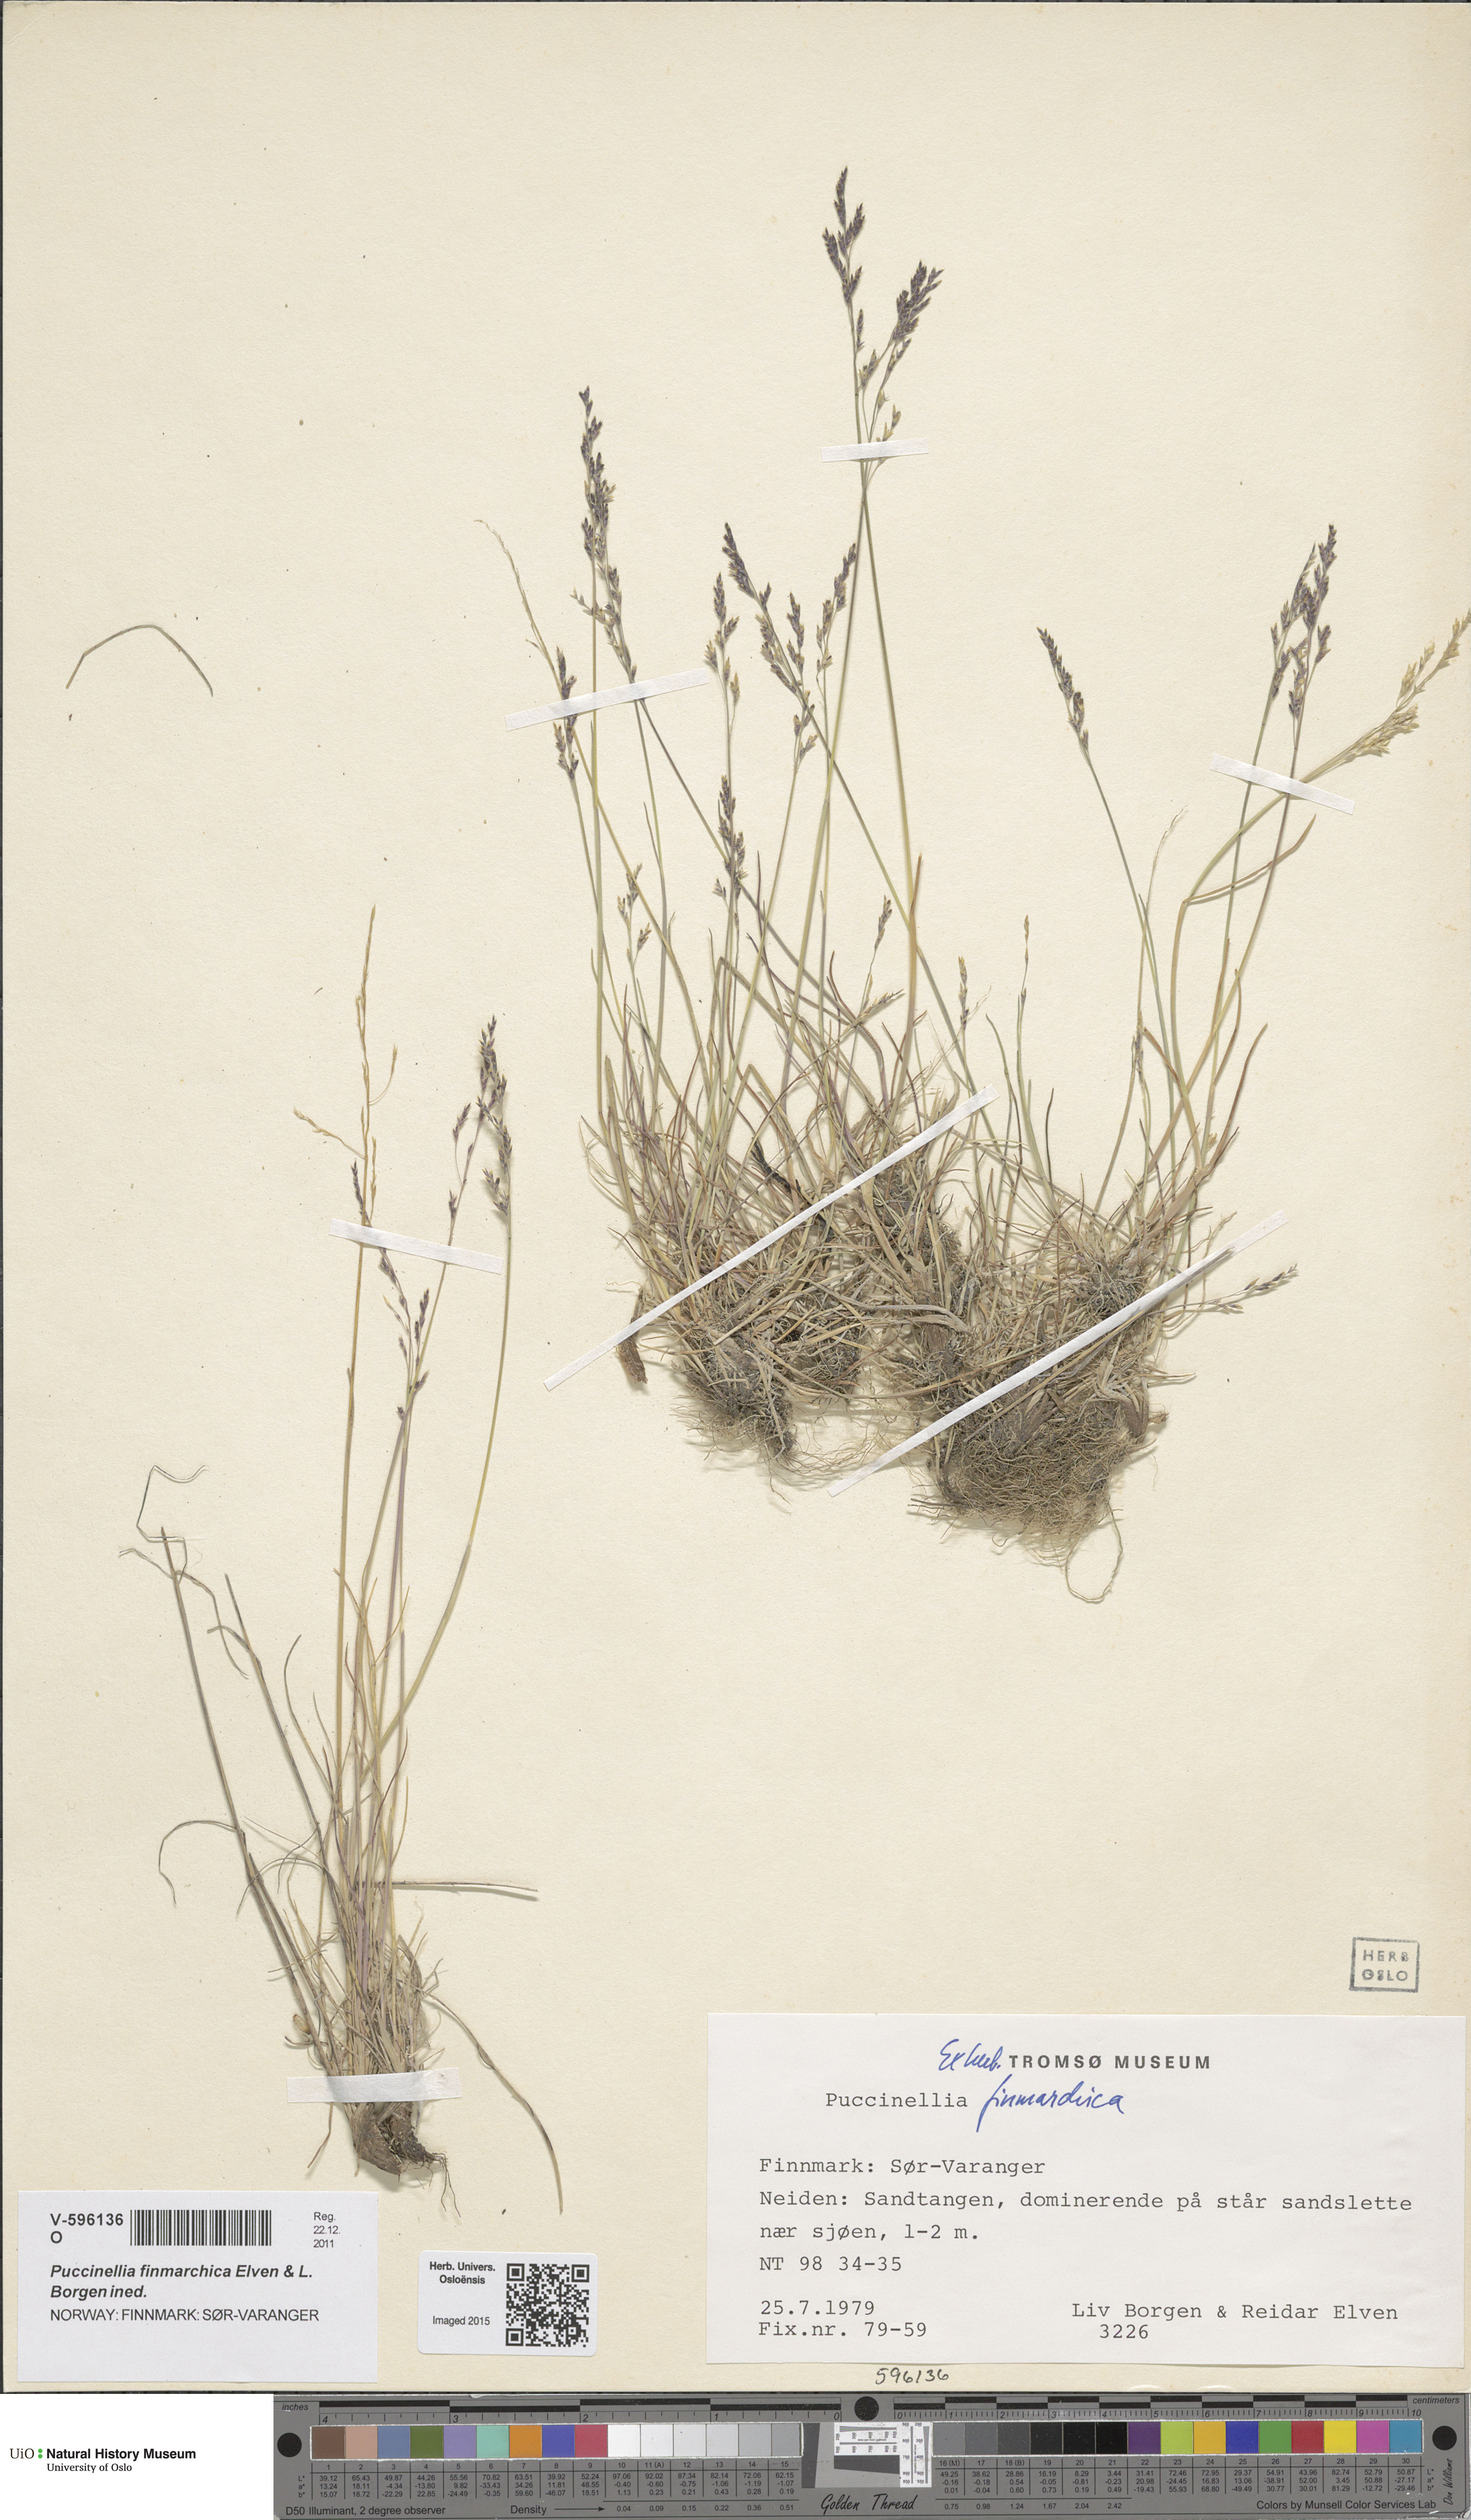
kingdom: Plantae
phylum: Tracheophyta
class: Liliopsida
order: Poales
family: Poaceae
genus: Puccinellia
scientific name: Puccinellia finmarchica
